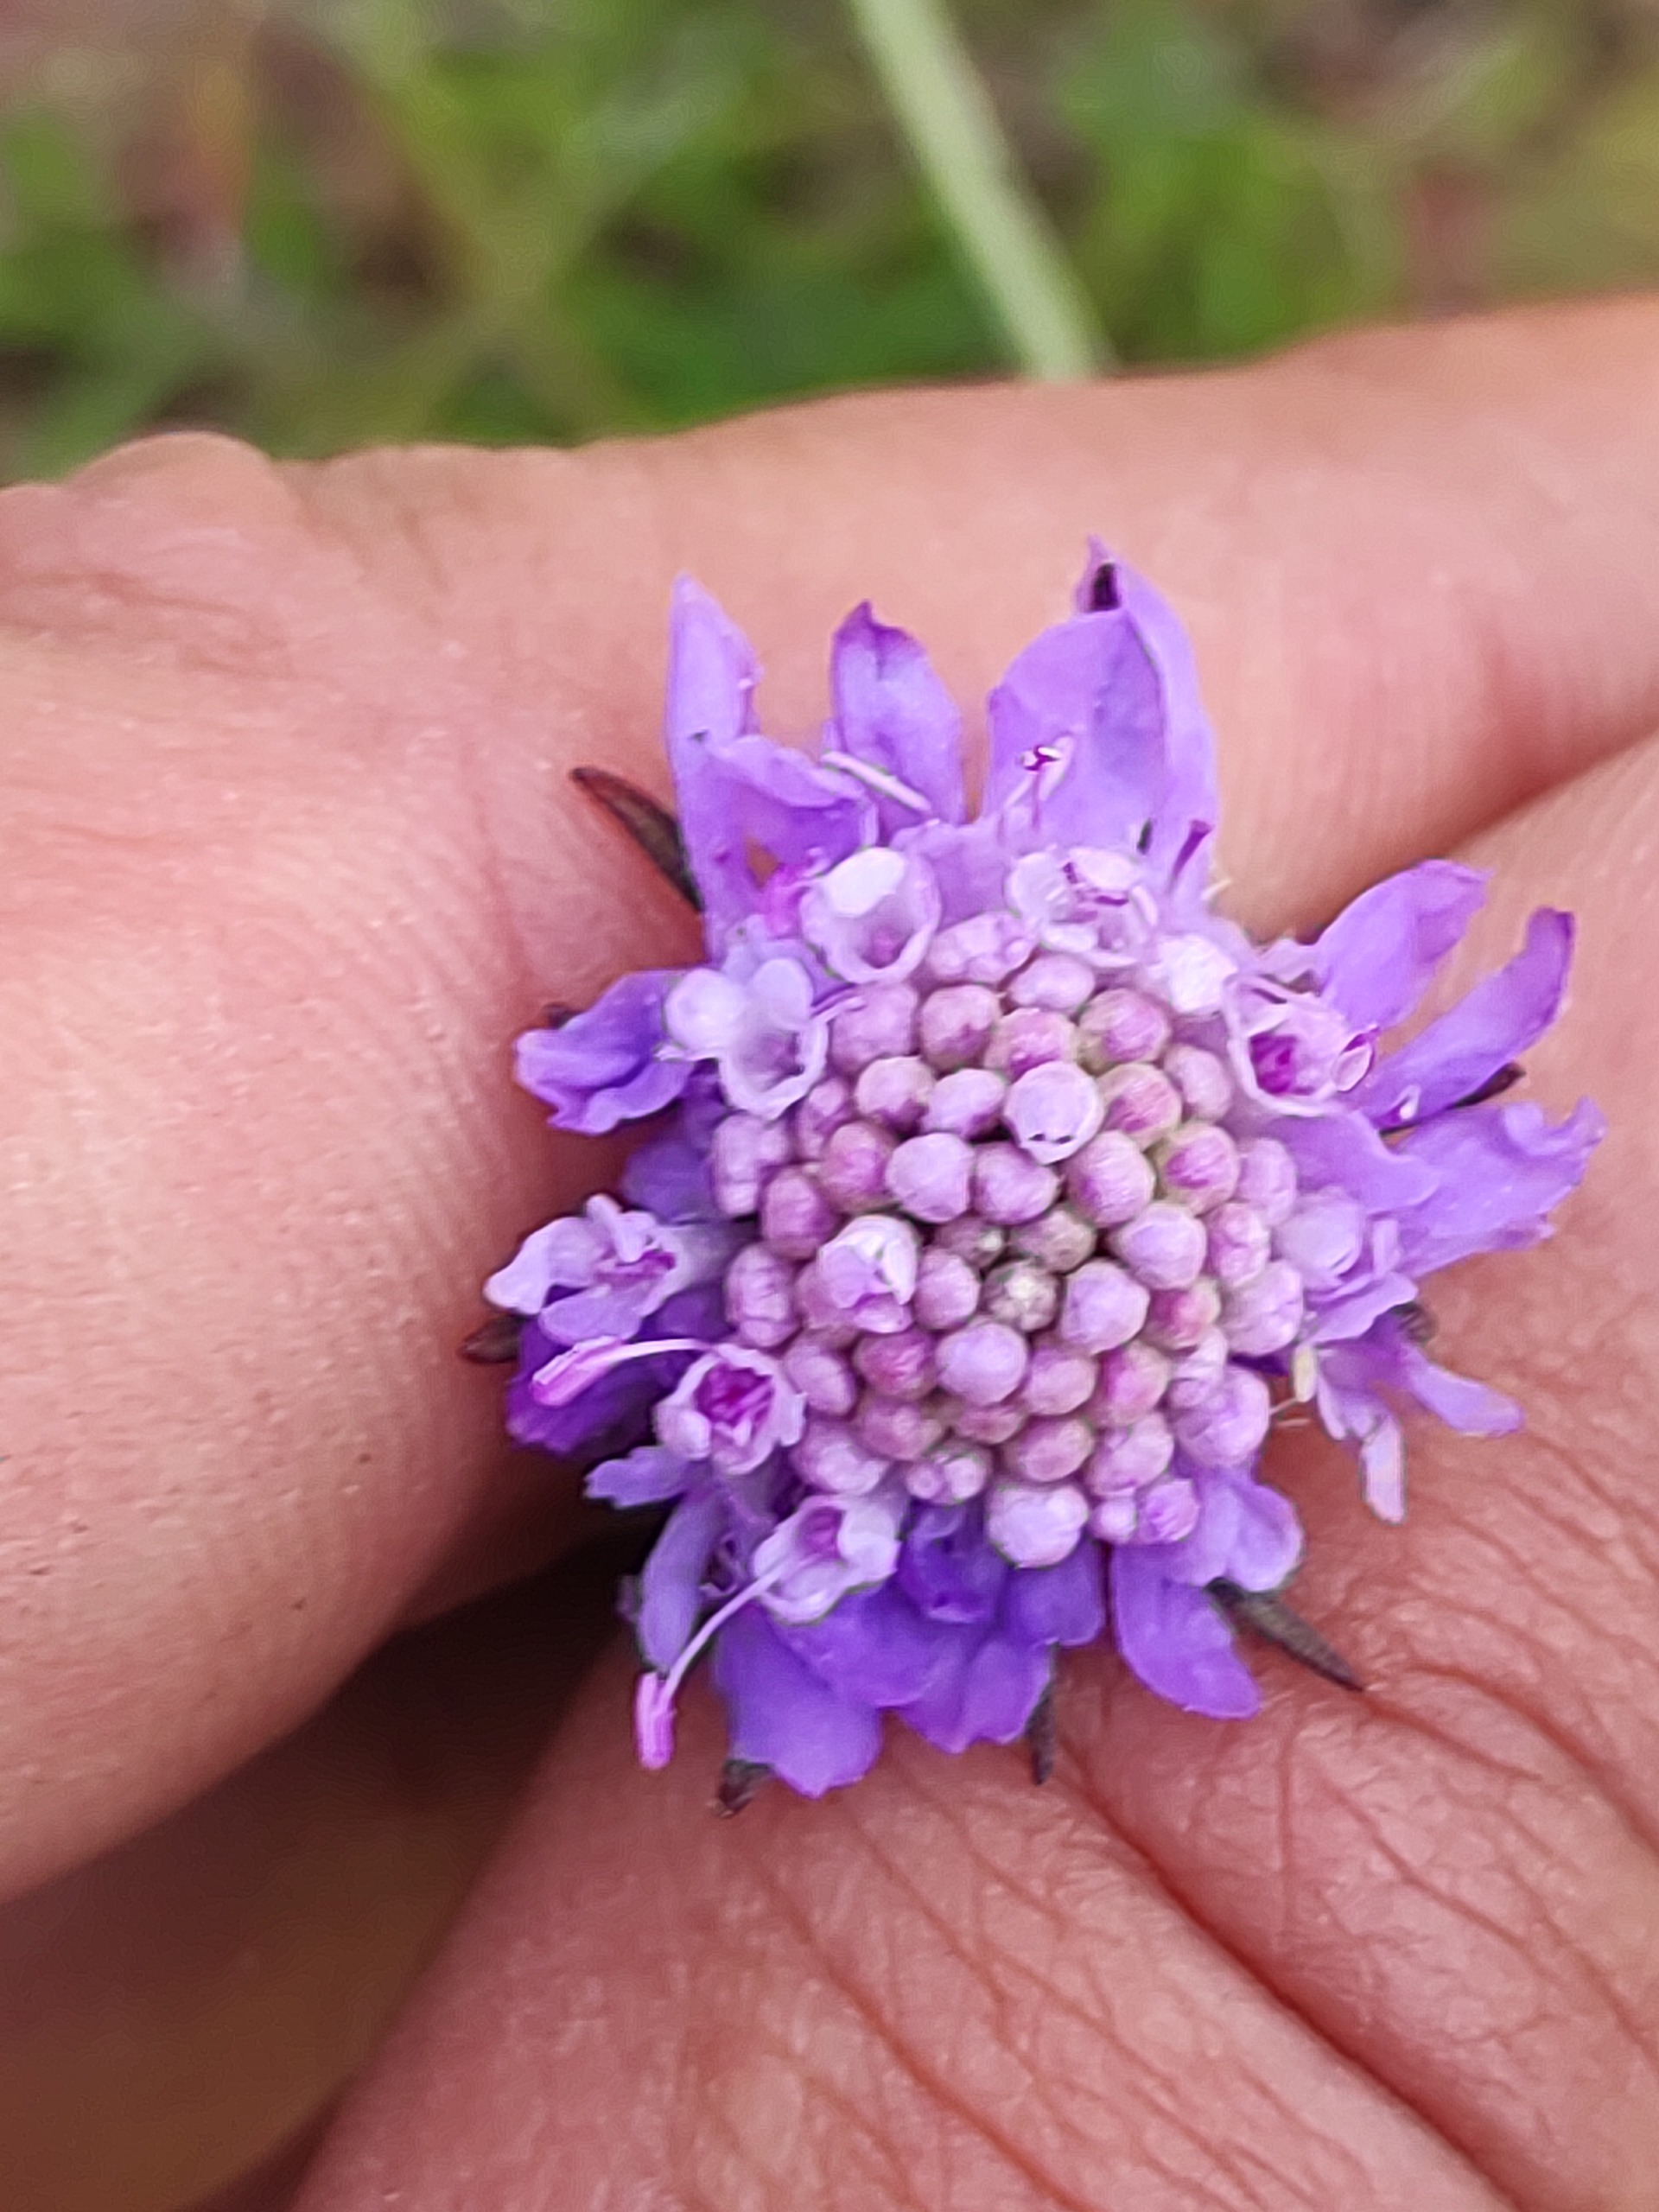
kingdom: Plantae
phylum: Tracheophyta
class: Magnoliopsida
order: Dipsacales
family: Caprifoliaceae
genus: Scabiosa
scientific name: Scabiosa columbaria
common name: Due-skabiose
